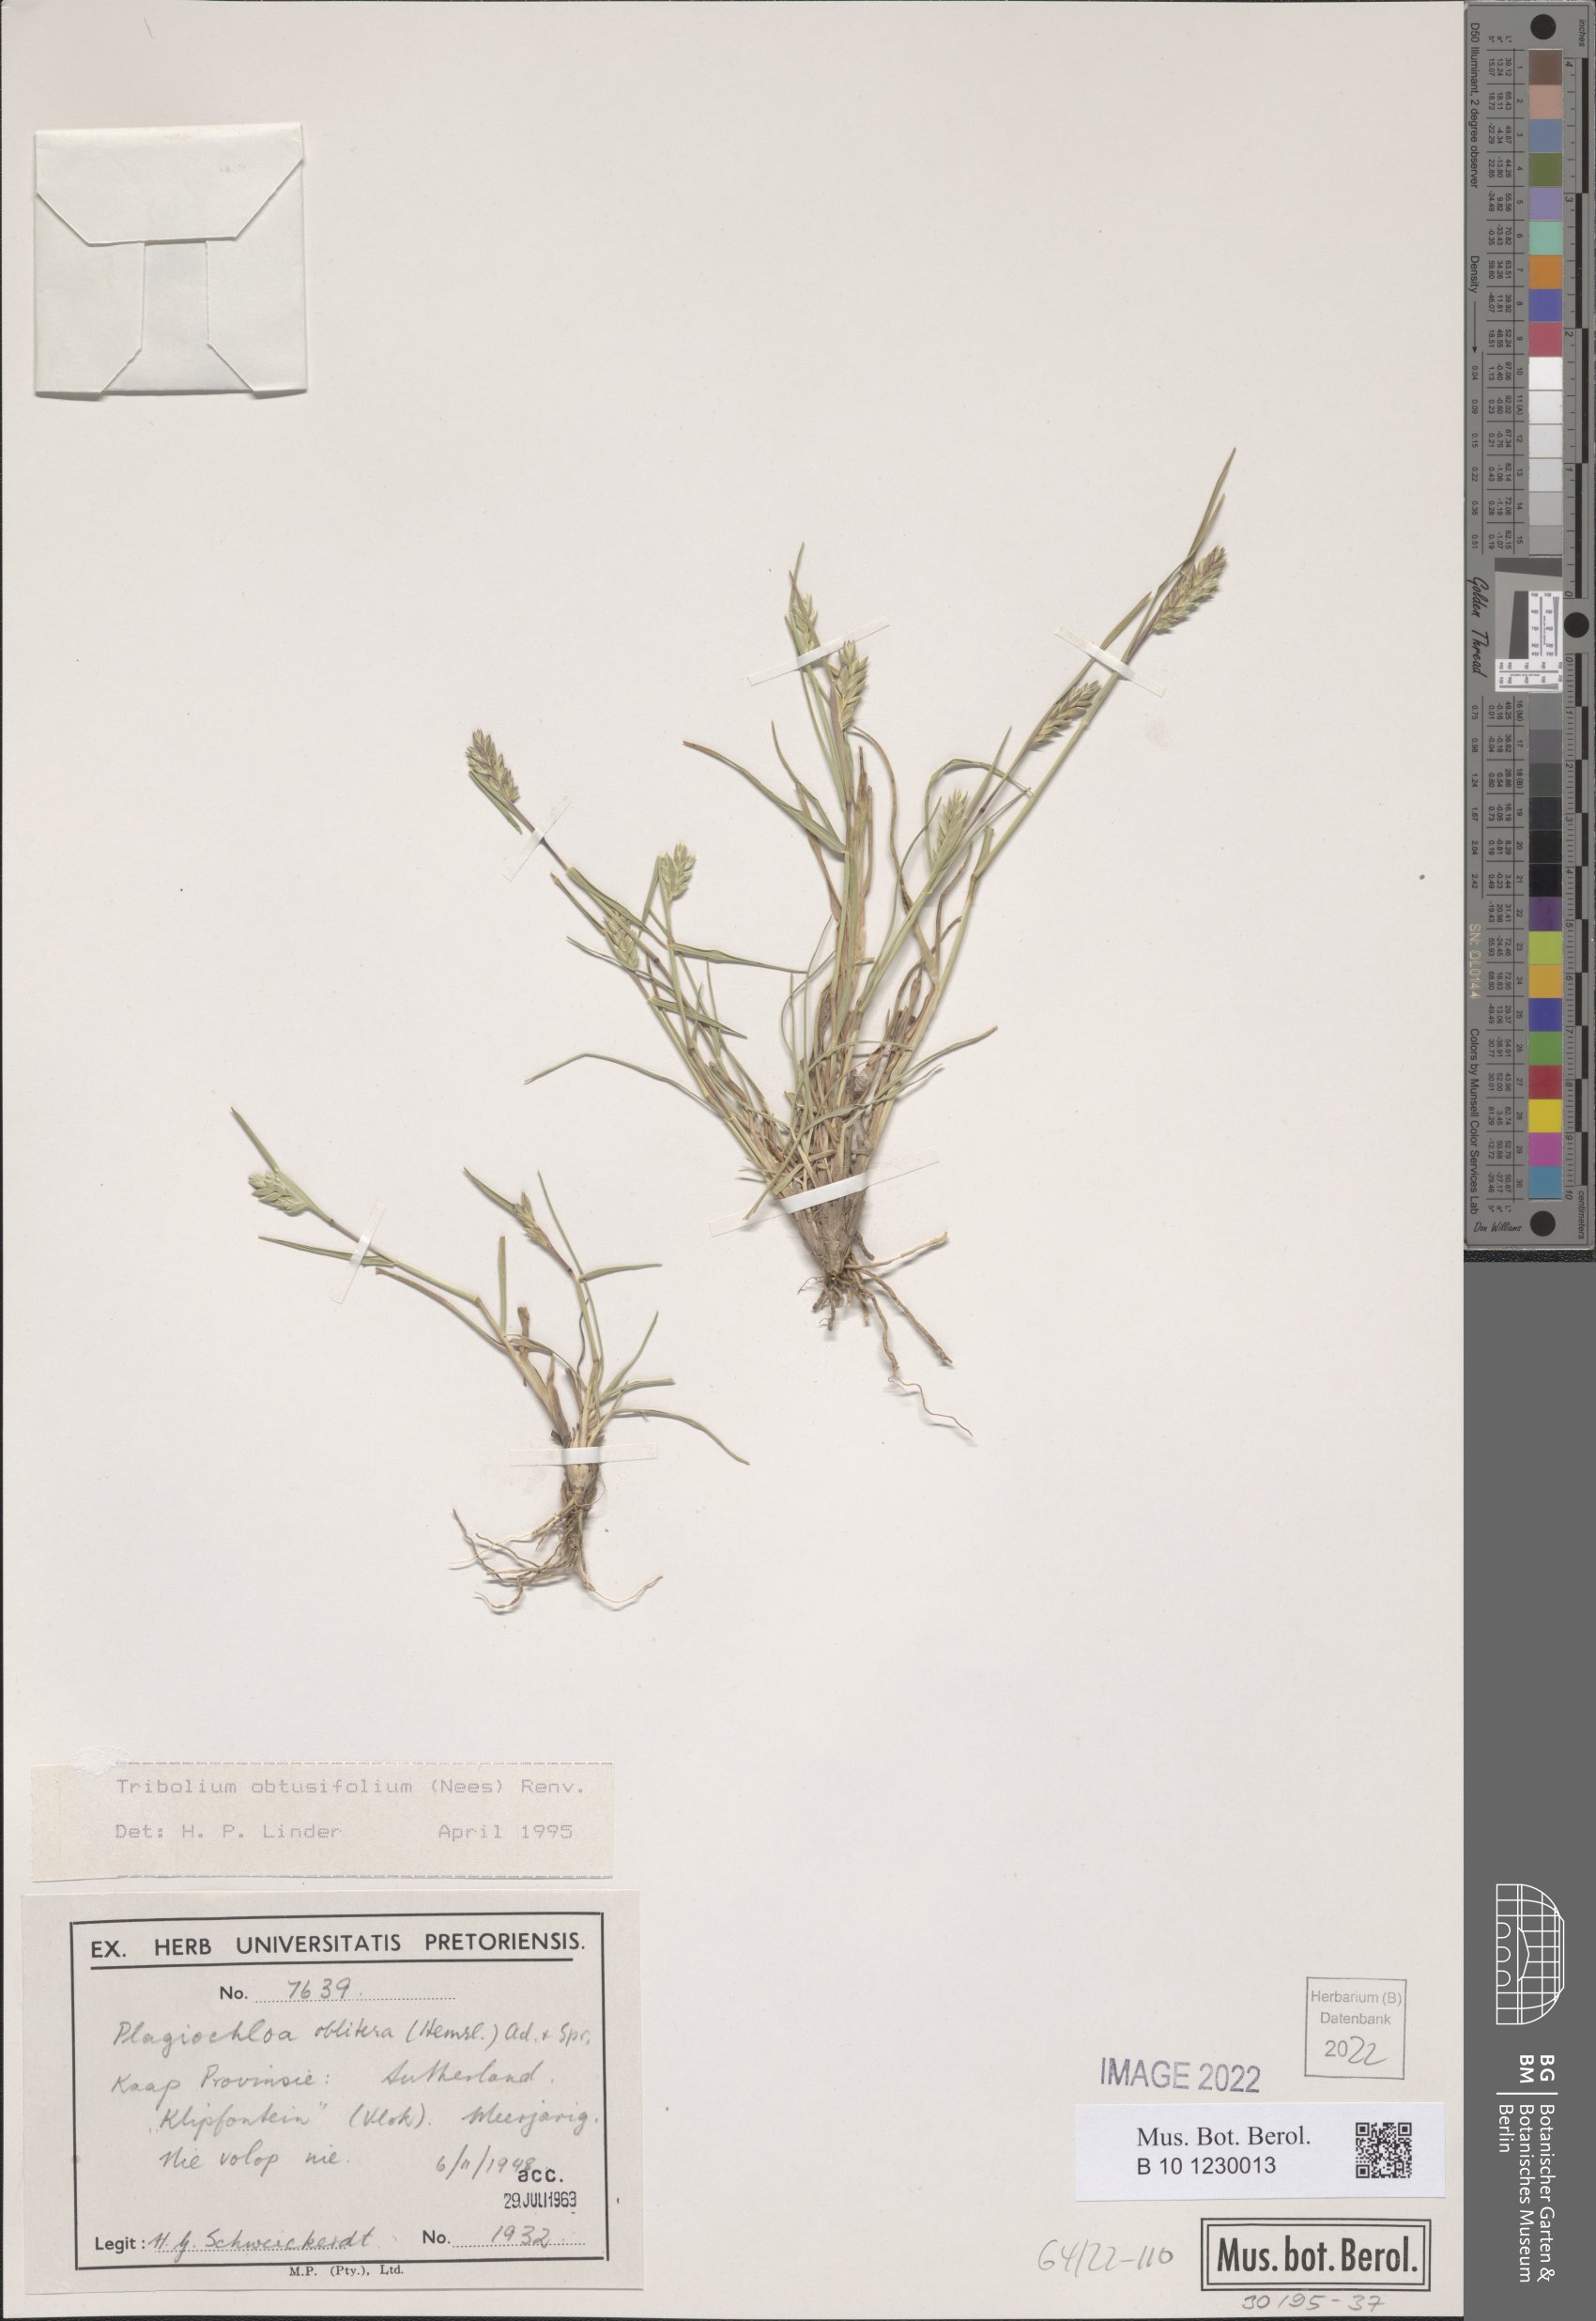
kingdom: Plantae
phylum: Tracheophyta
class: Liliopsida
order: Poales
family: Poaceae
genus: Tribolium
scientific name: Tribolium obtusifolium
